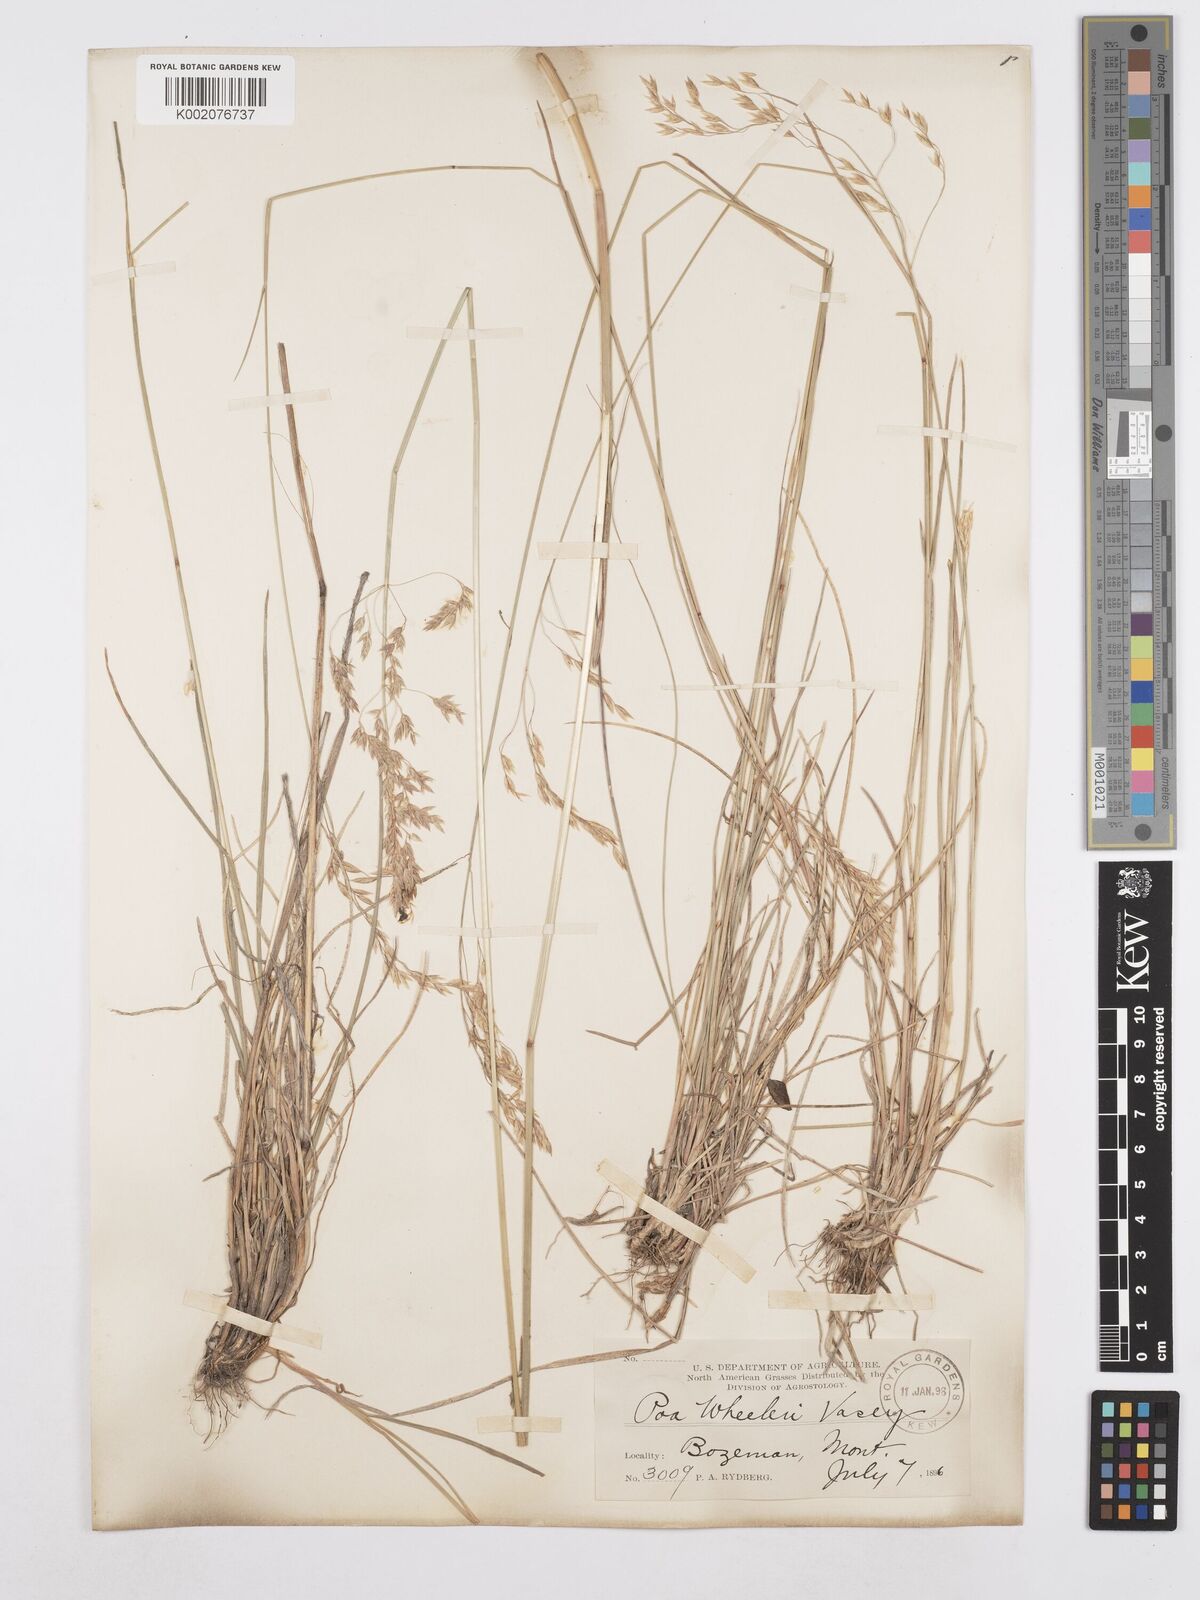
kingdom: Plantae
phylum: Tracheophyta
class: Liliopsida
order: Poales
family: Poaceae
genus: Poa
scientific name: Poa wheeleri
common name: Wheeler's bluegrass
